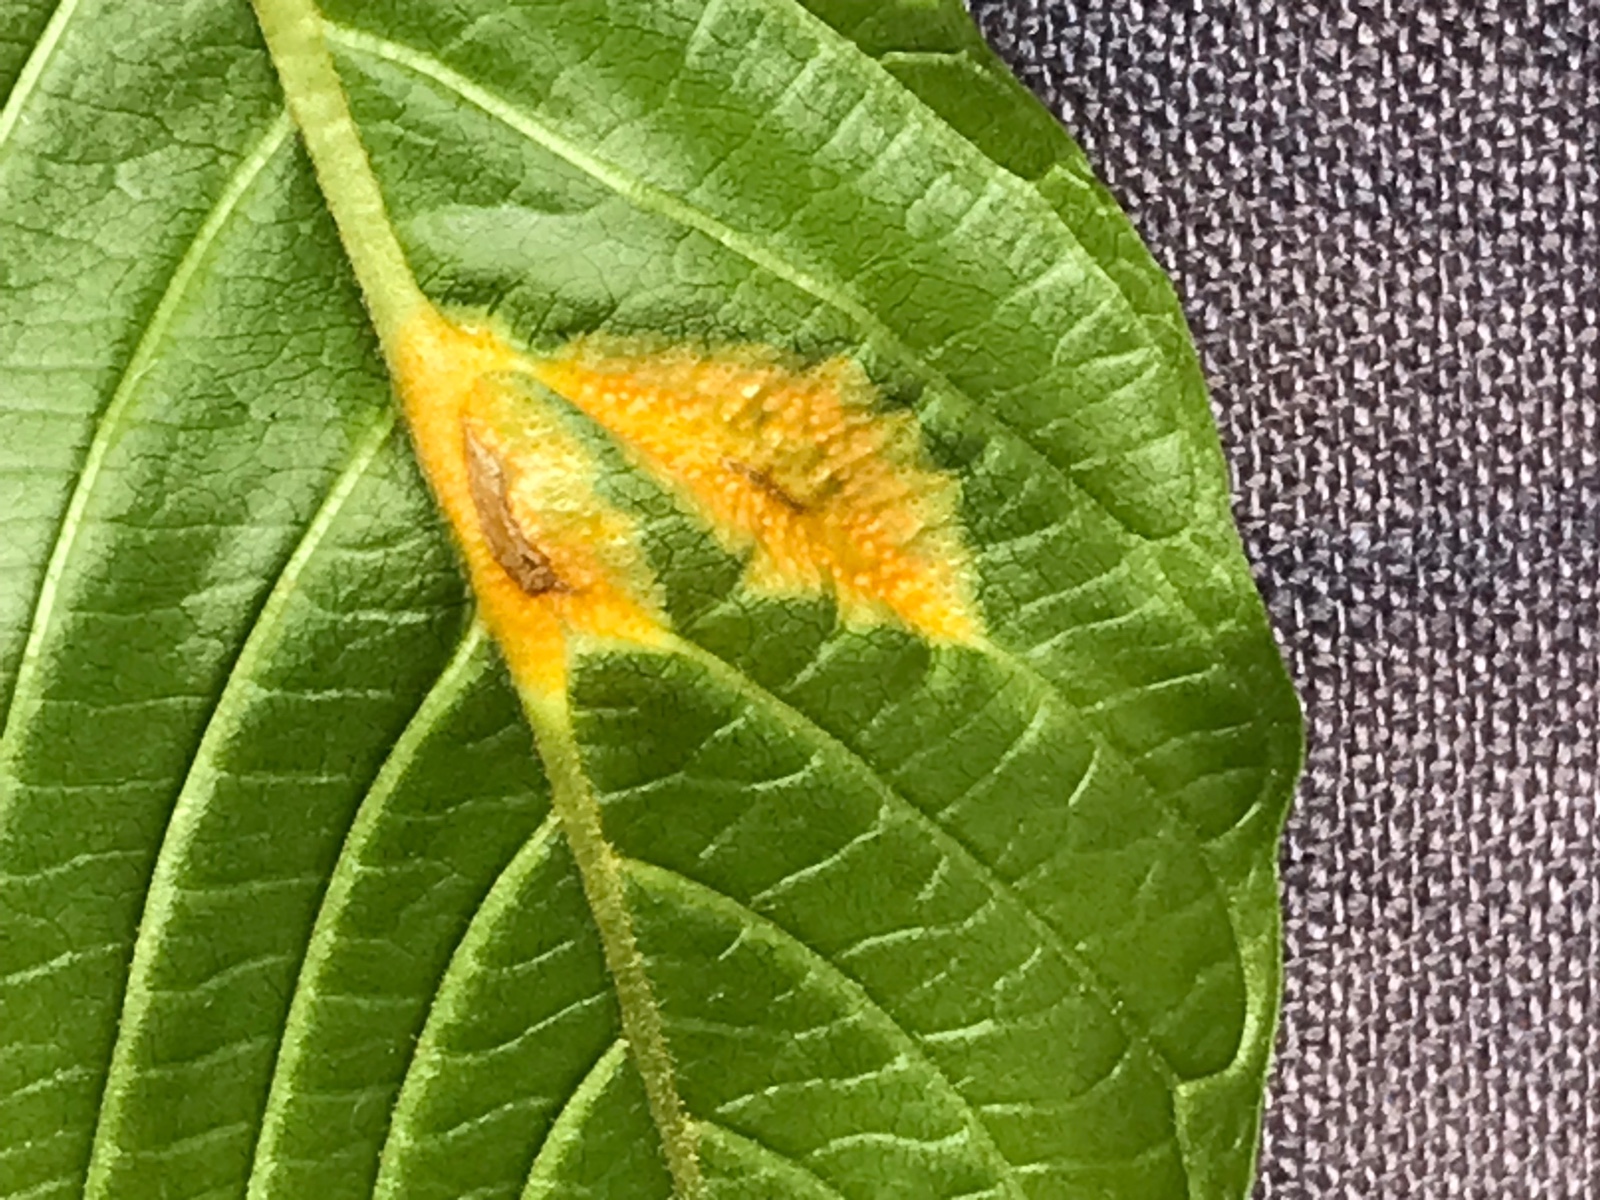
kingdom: Fungi
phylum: Basidiomycota
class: Pucciniomycetes
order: Pucciniales
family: Pucciniaceae
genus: Puccinia
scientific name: Puccinia coronata
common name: Crown rust
